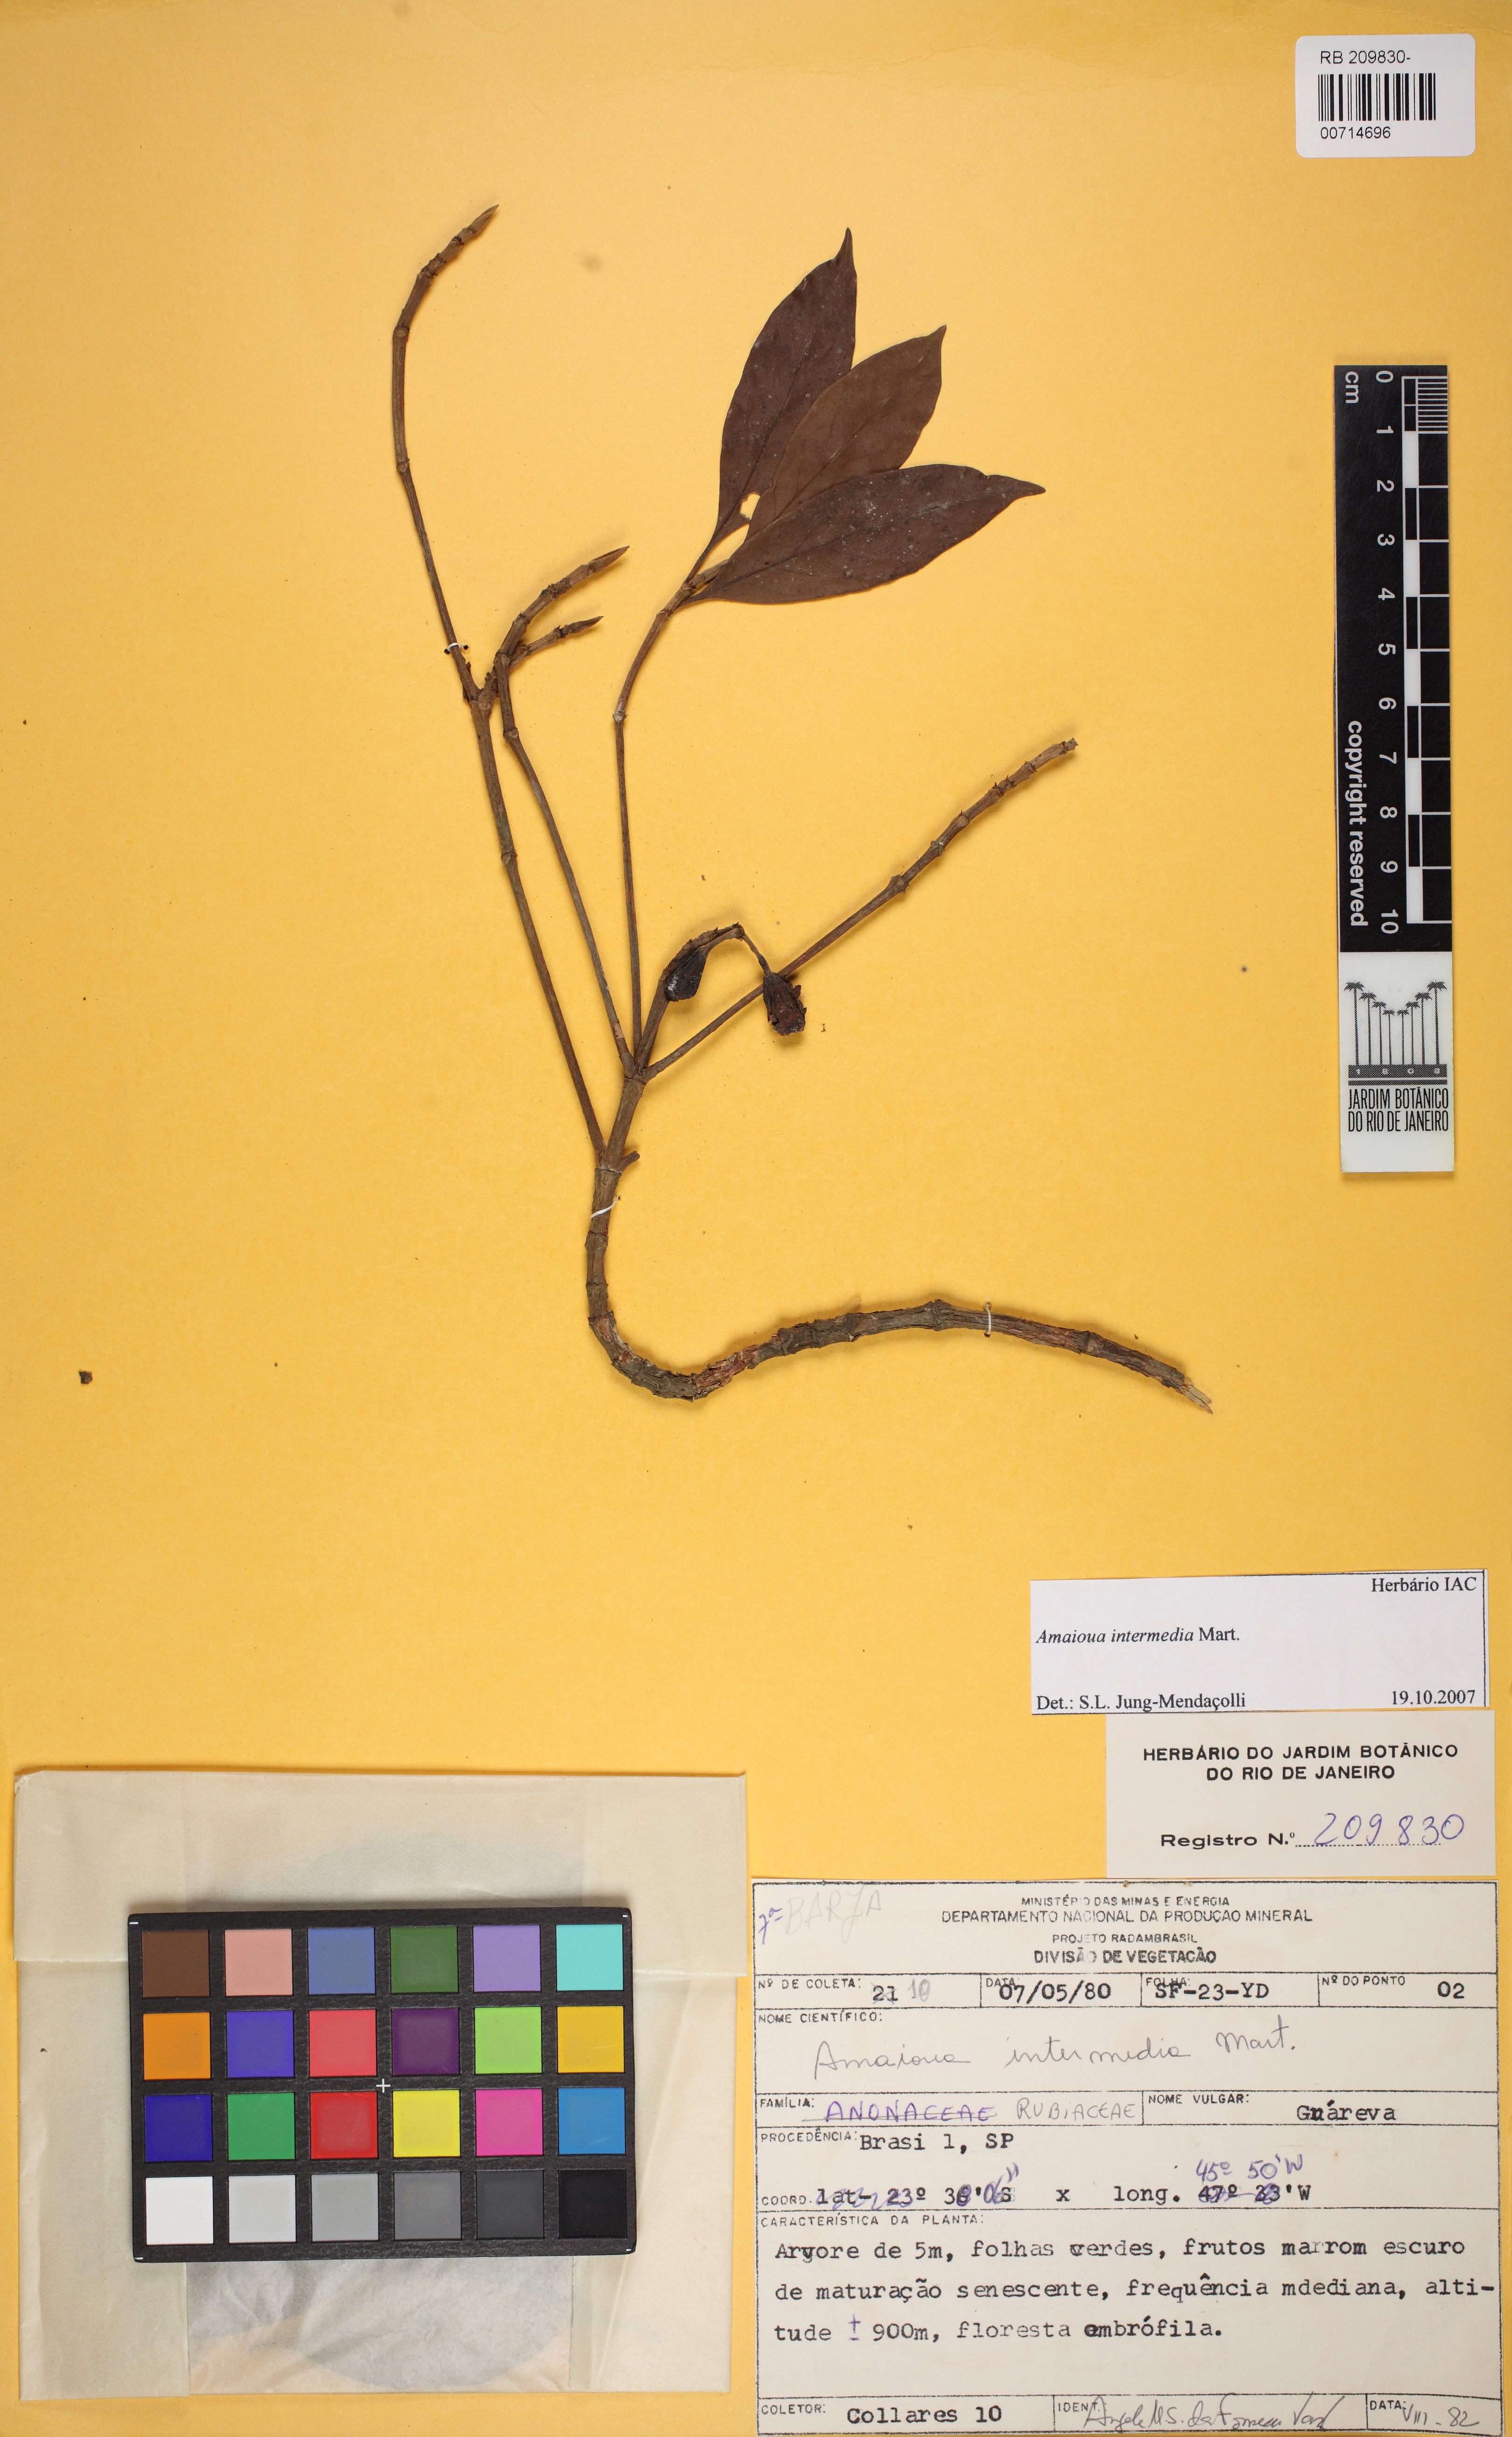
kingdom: Plantae
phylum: Tracheophyta
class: Magnoliopsida
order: Gentianales
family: Rubiaceae
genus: Amaioua
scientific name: Amaioua intermedia
